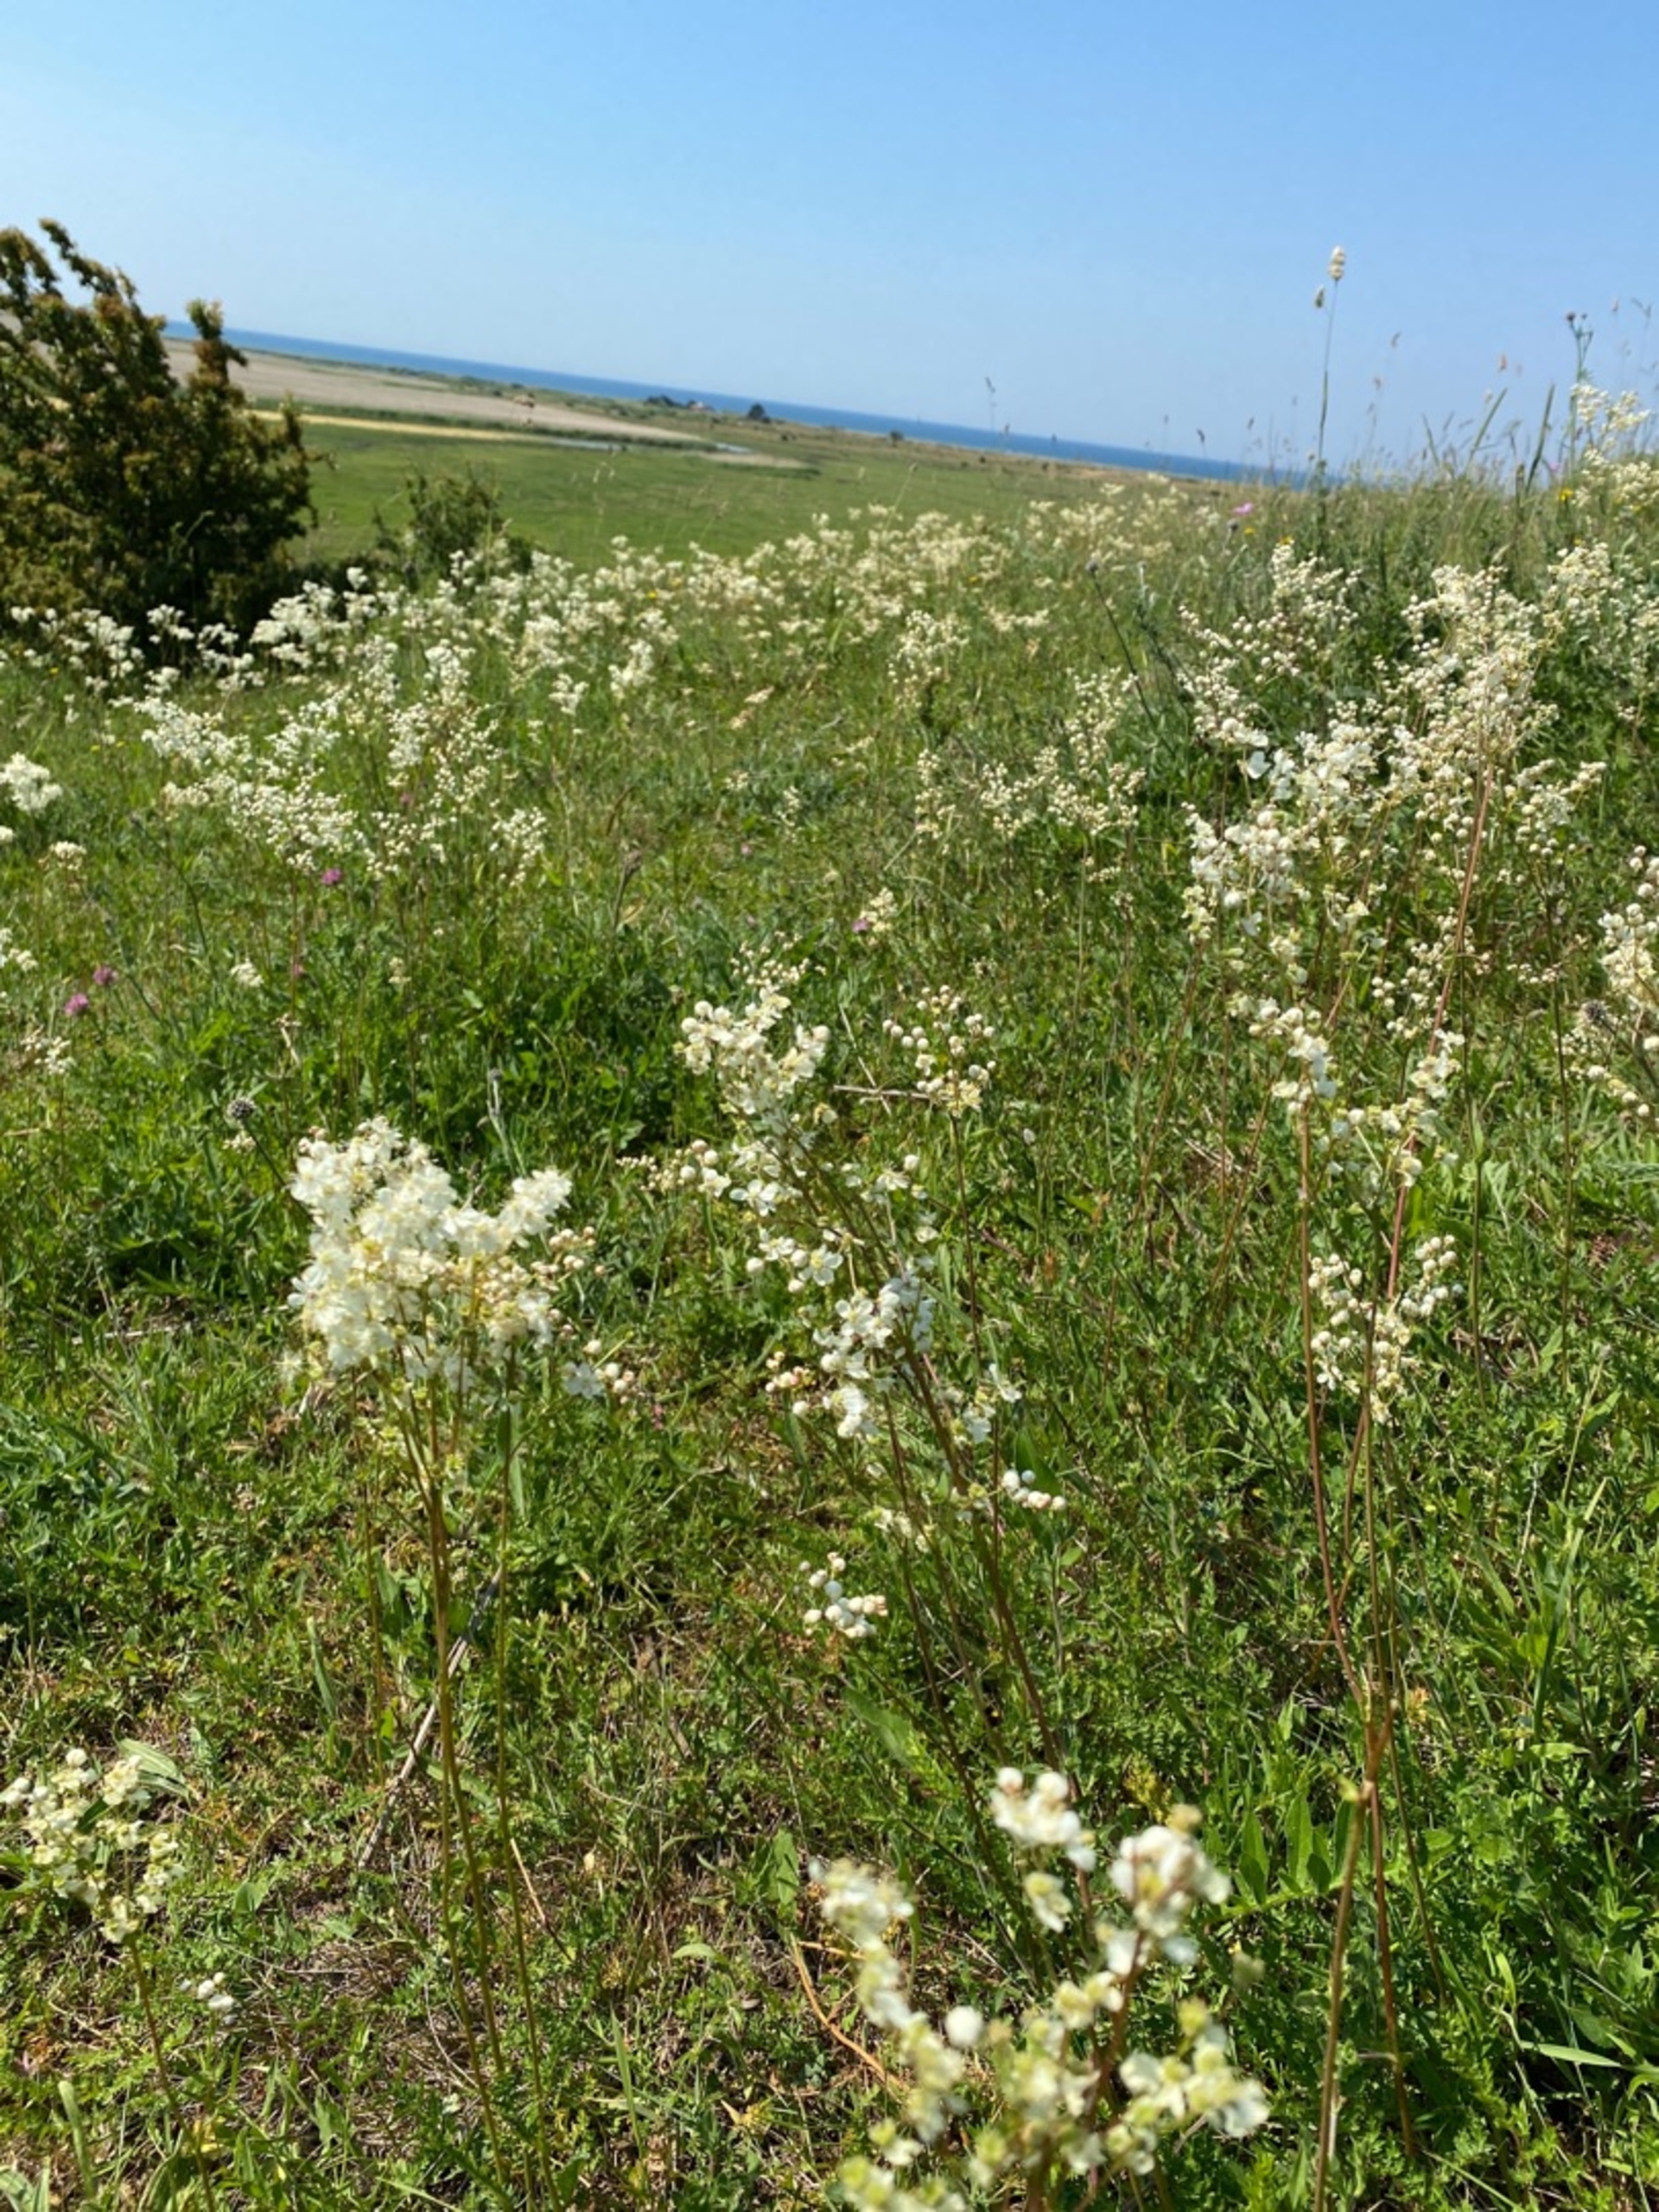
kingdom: Plantae
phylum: Tracheophyta
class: Magnoliopsida
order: Rosales
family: Rosaceae
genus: Filipendula
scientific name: Filipendula vulgaris
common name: Knoldet mjødurt
